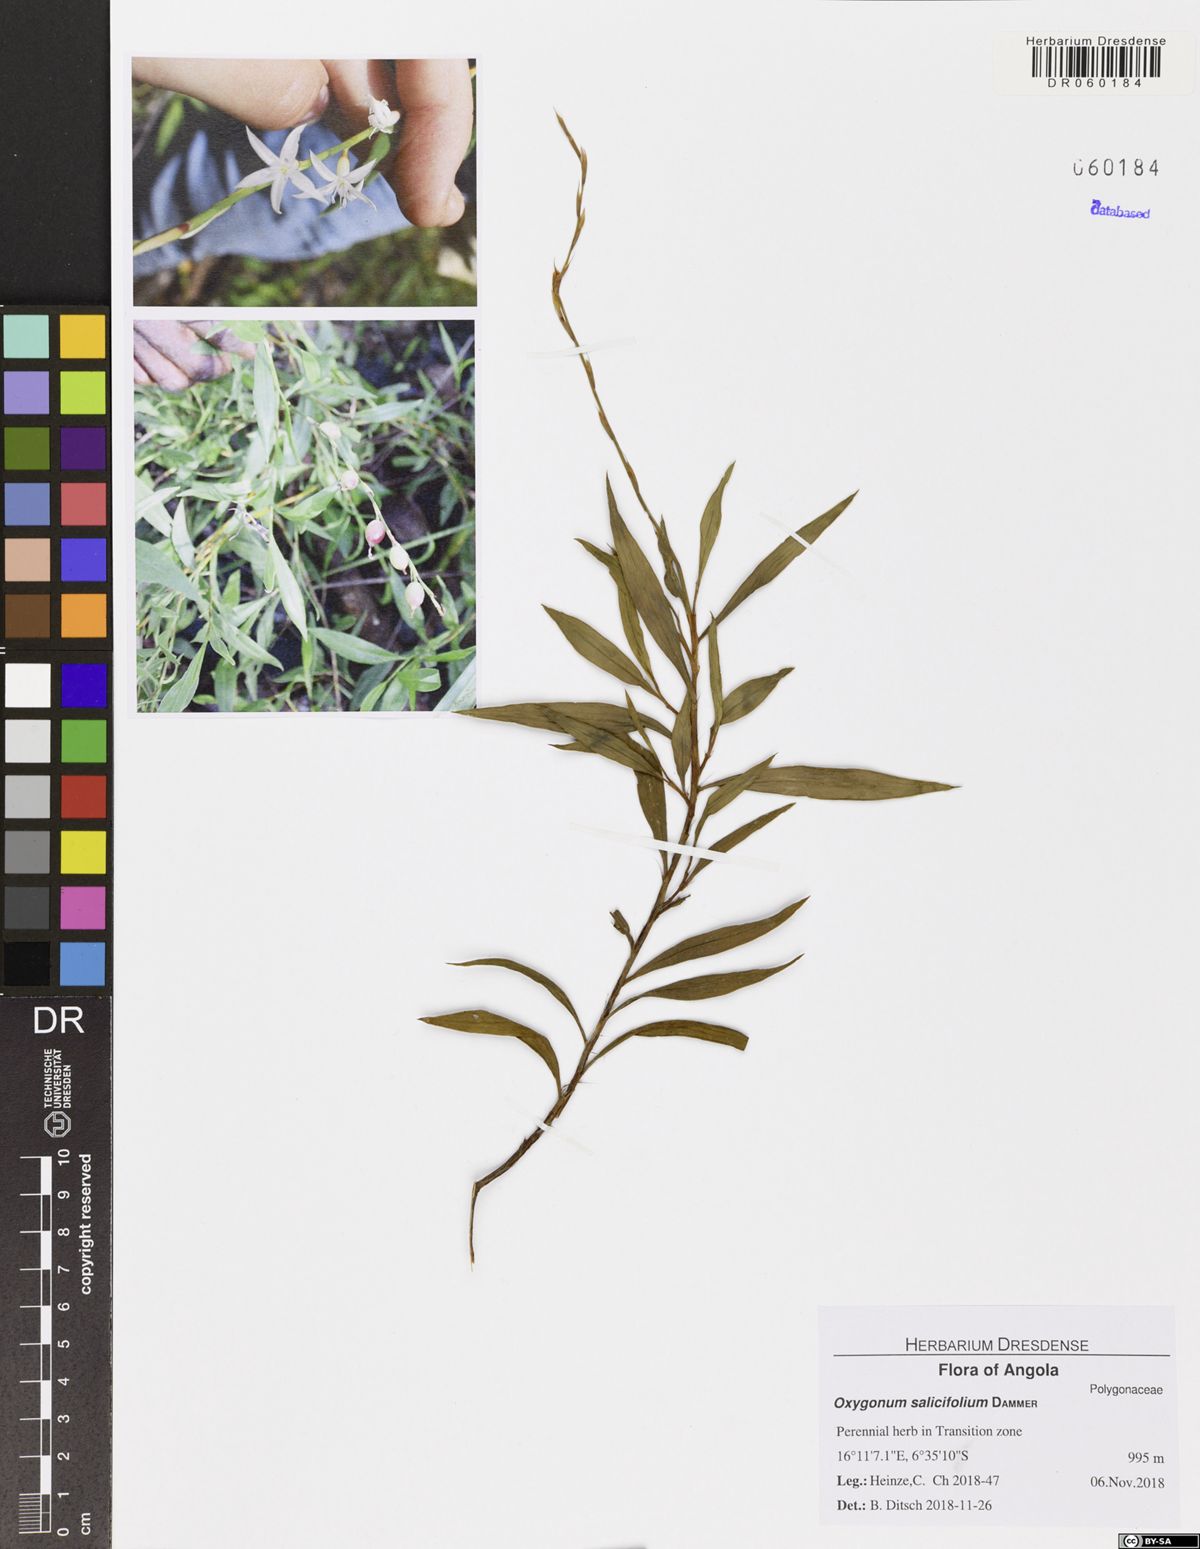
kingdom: Plantae
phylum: Tracheophyta
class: Magnoliopsida
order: Caryophyllales
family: Polygonaceae
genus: Oxygonum
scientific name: Oxygonum pachybasis
